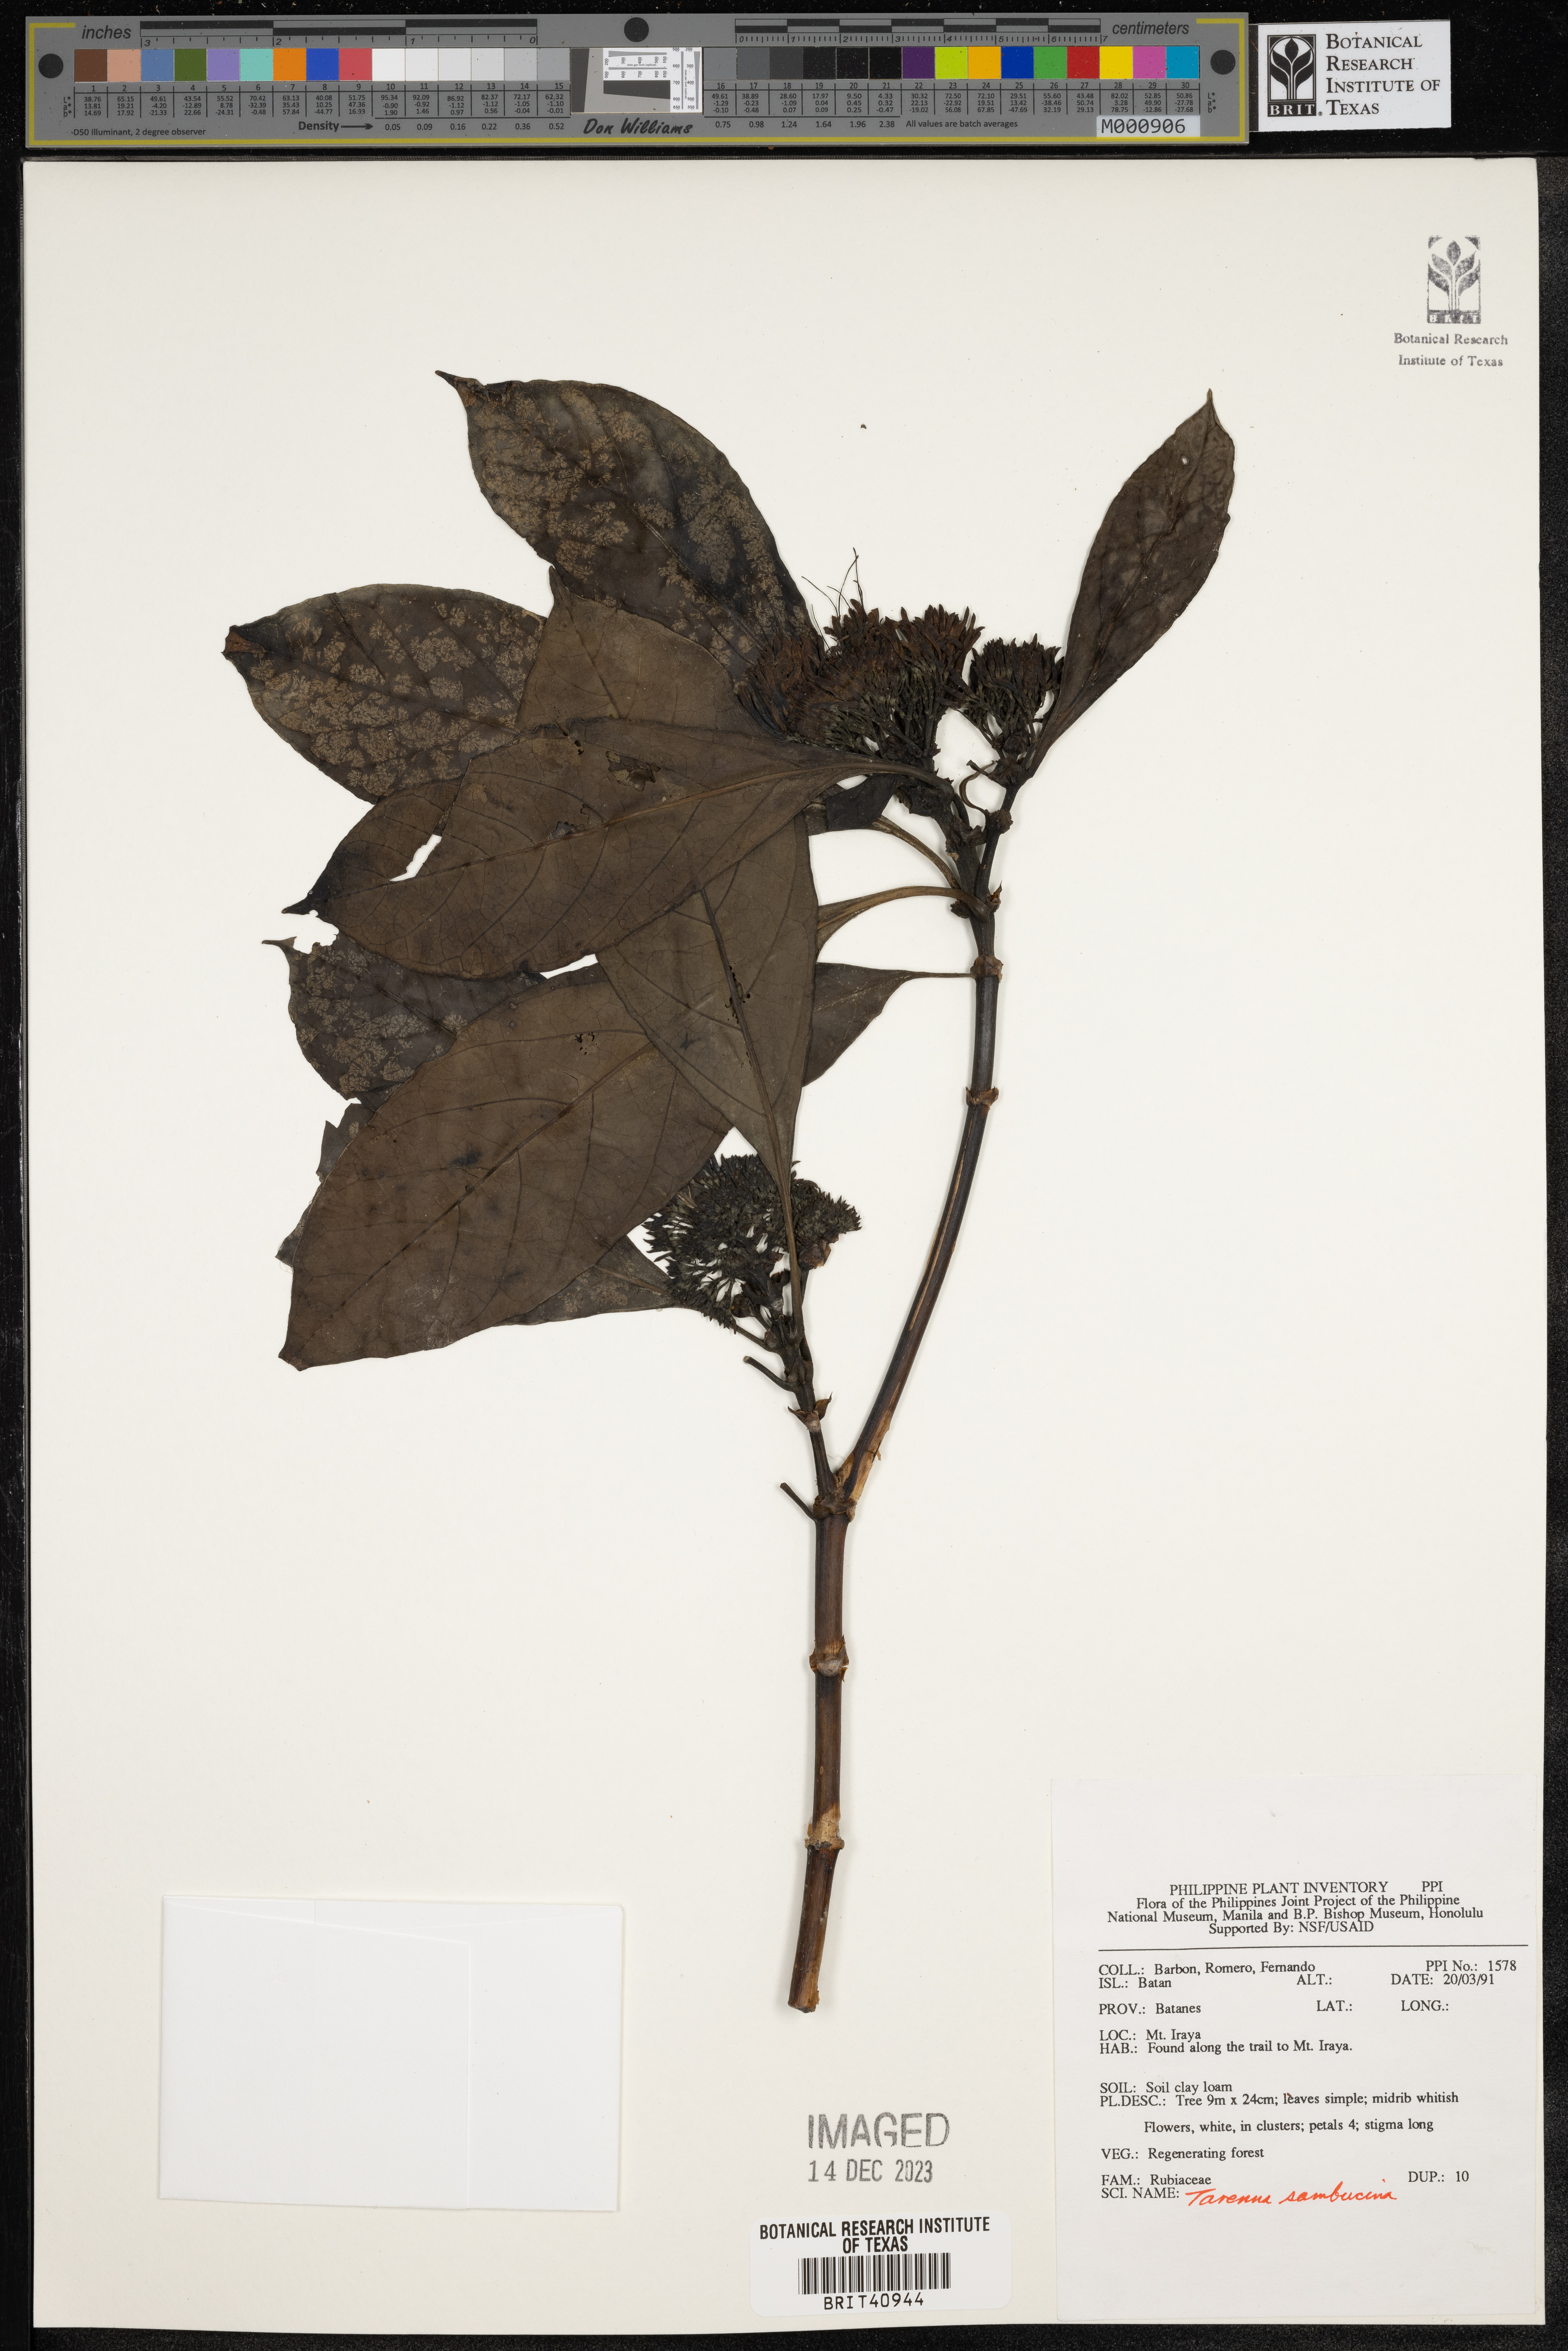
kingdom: Plantae
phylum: Tracheophyta
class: Magnoliopsida
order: Gentianales
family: Rubiaceae
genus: Tarenna
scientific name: Tarenna sambucina
